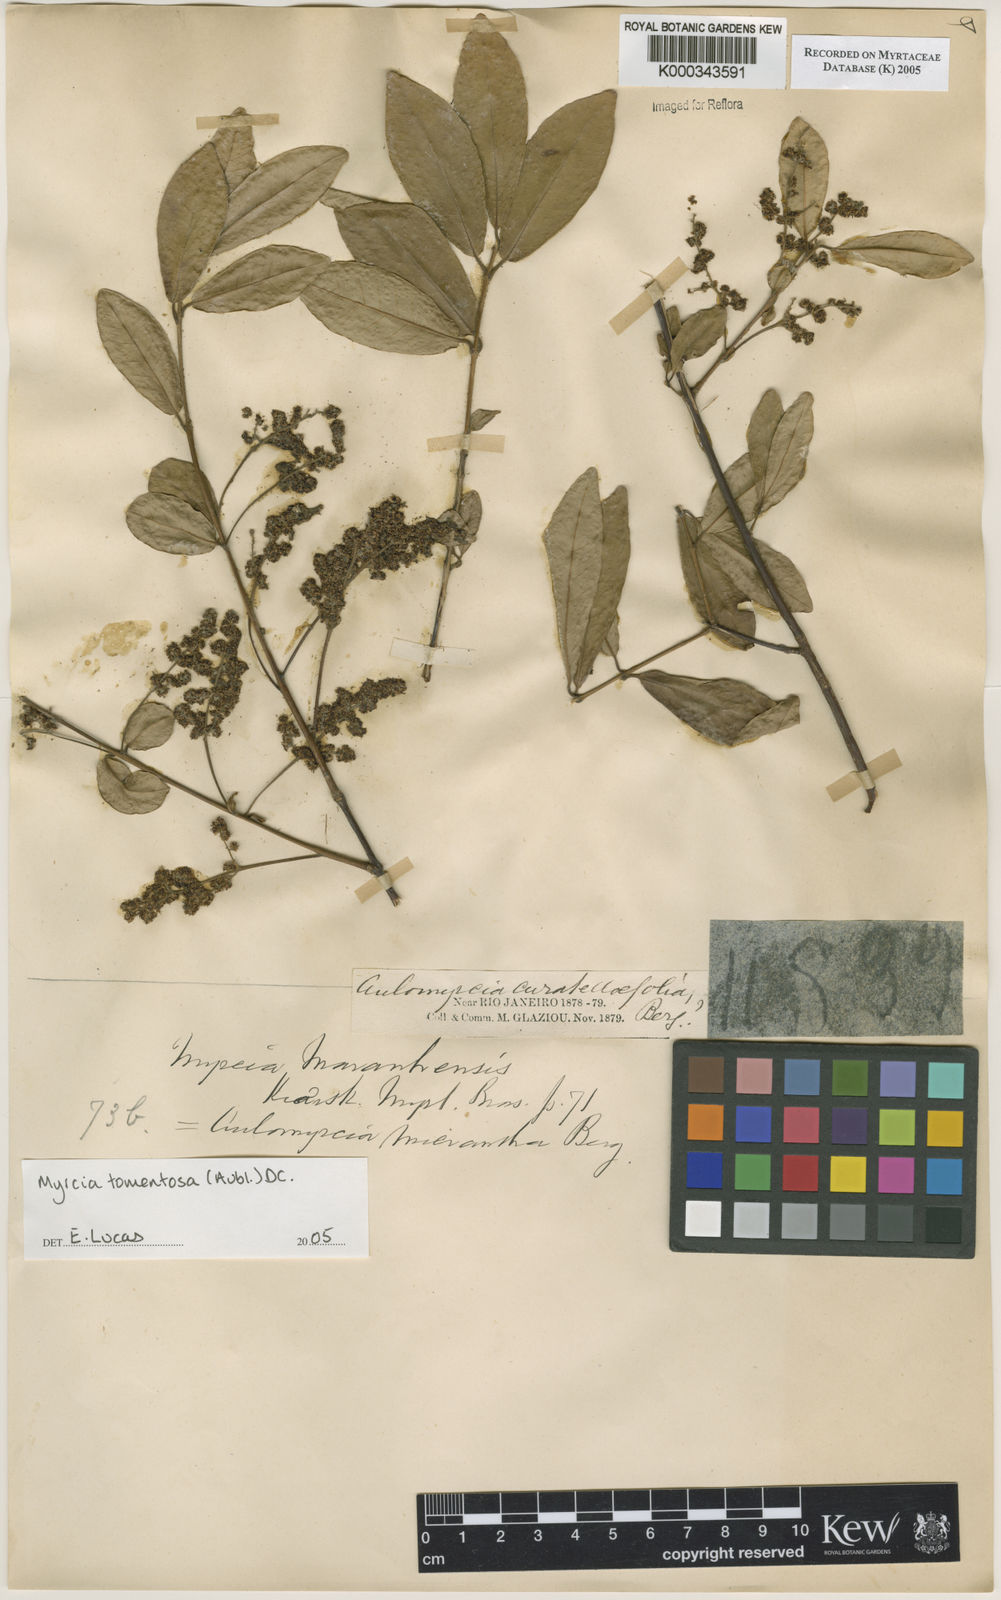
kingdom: Plantae
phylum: Tracheophyta
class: Magnoliopsida
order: Myrtales
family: Myrtaceae
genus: Myrcia
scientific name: Myrcia tomentosa
